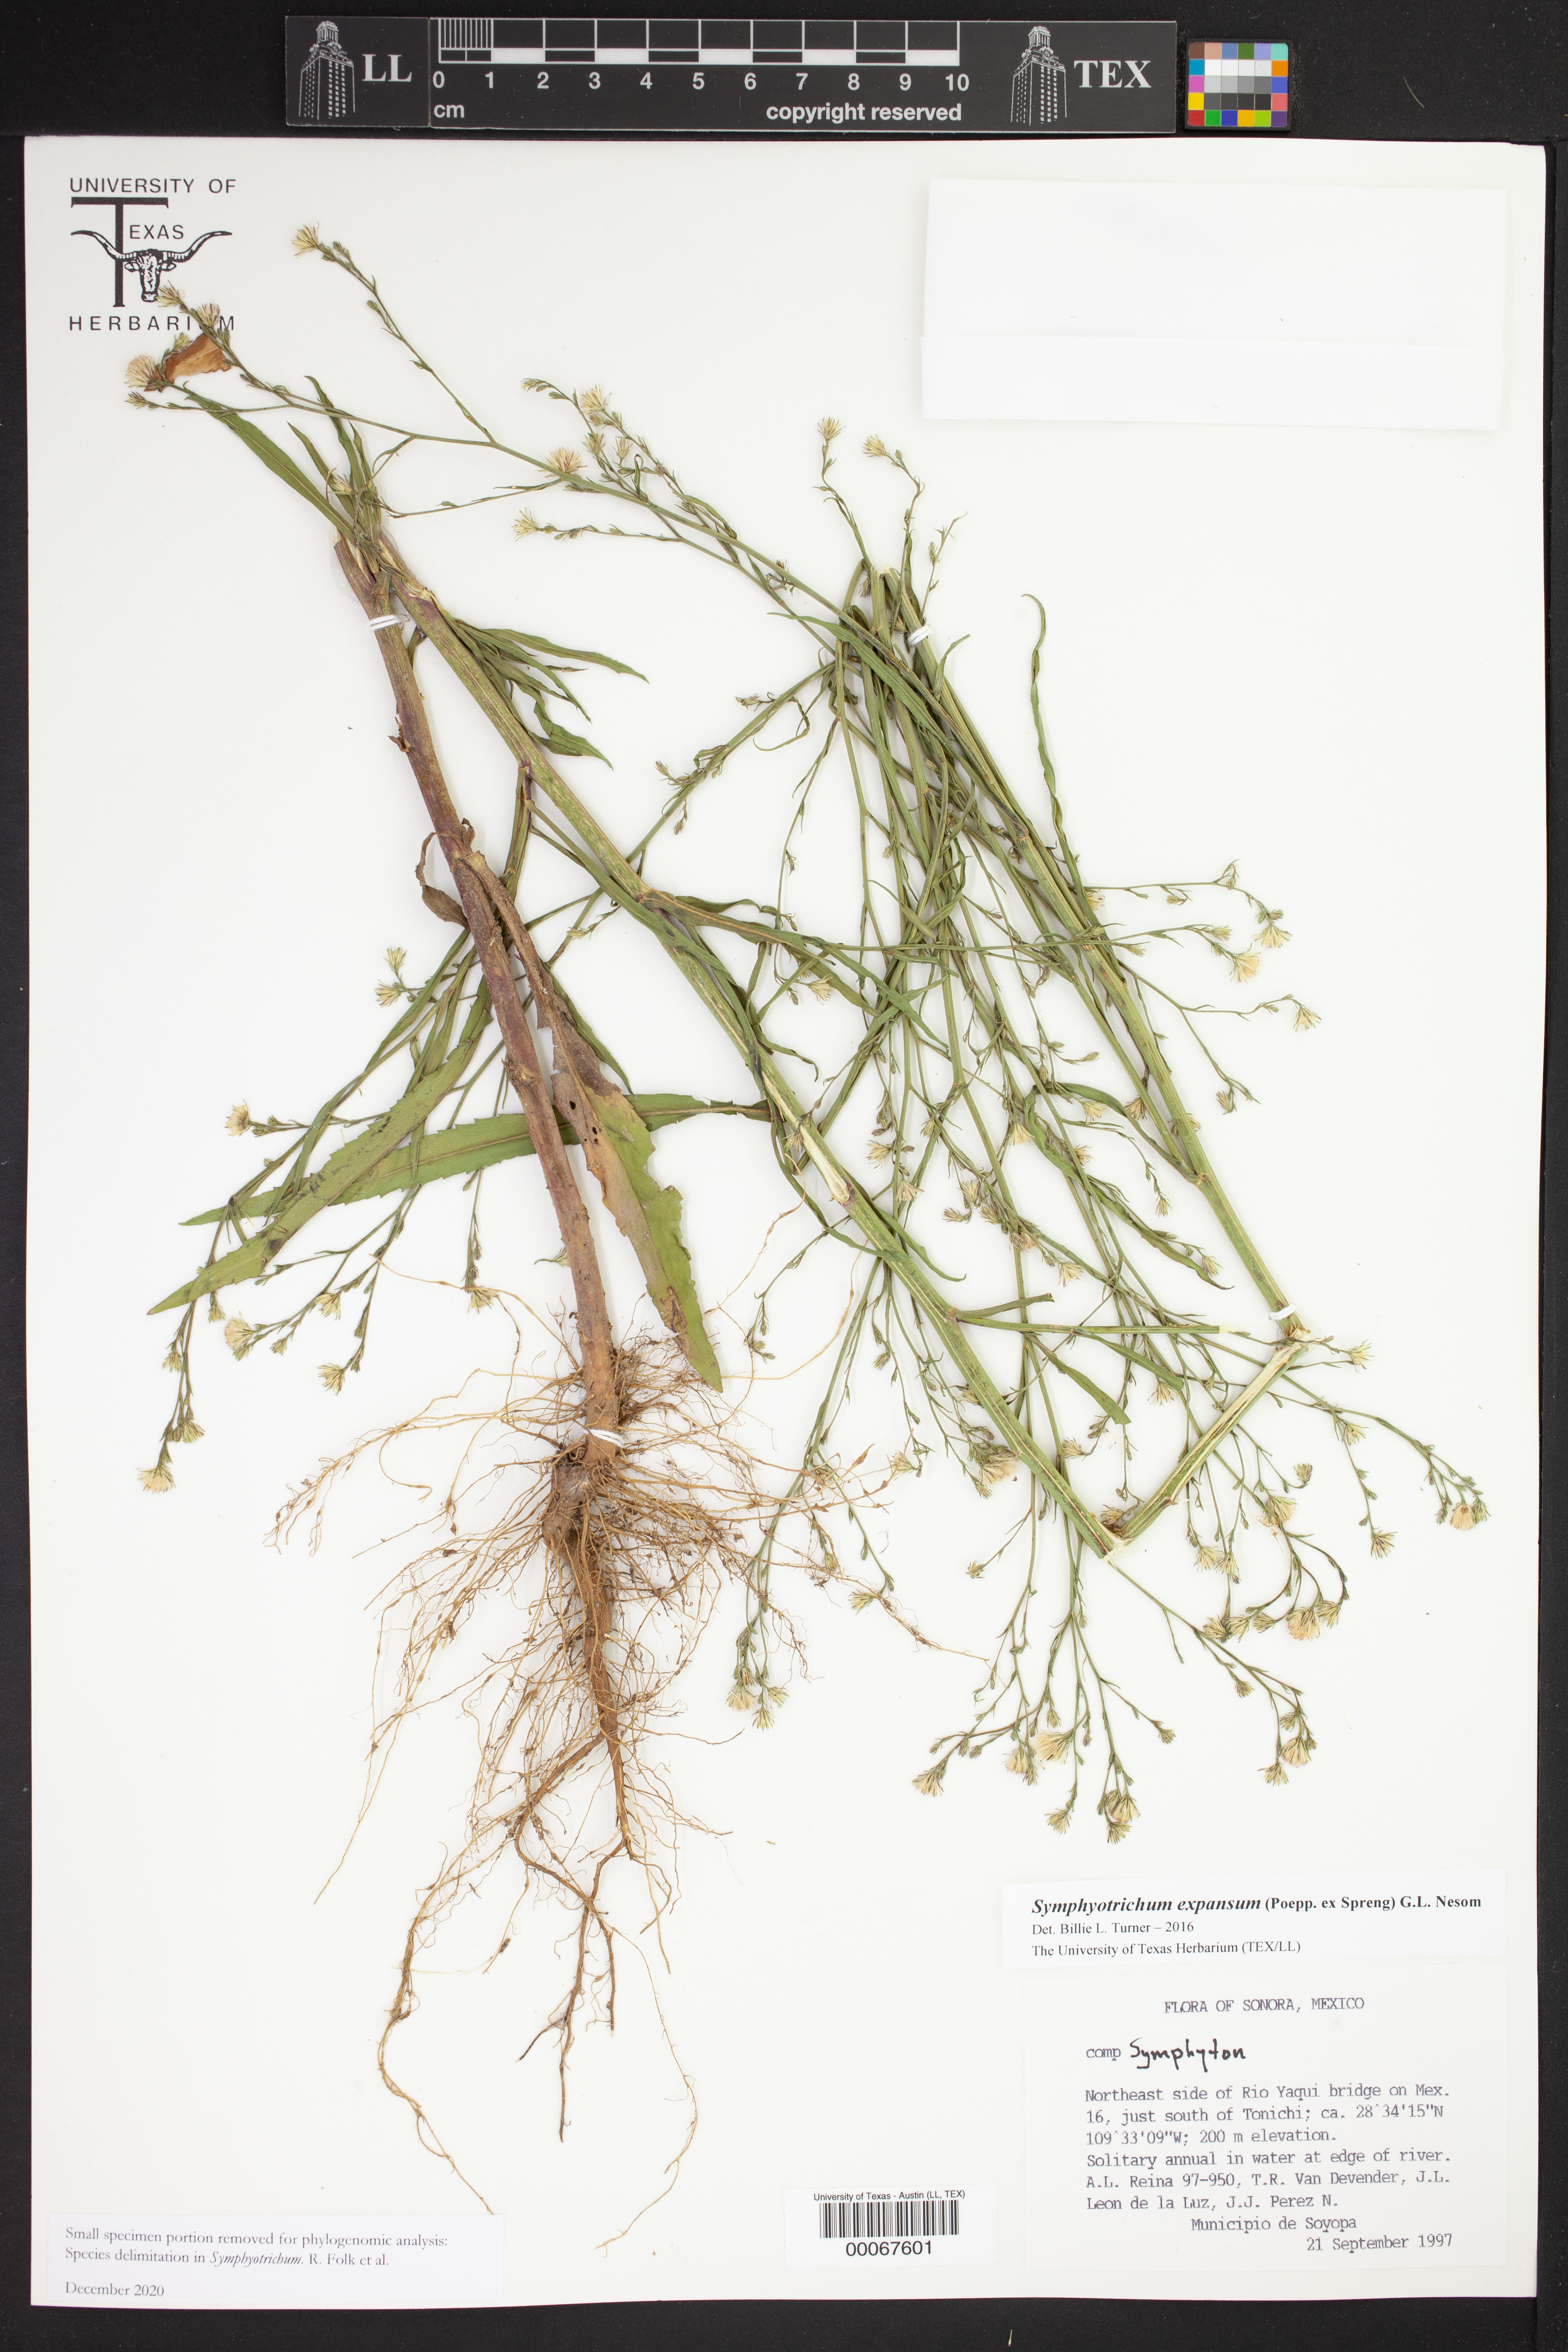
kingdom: Plantae
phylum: Tracheophyta
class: Magnoliopsida
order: Asterales
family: Asteraceae
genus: Symphyotrichum
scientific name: Symphyotrichum expansum
